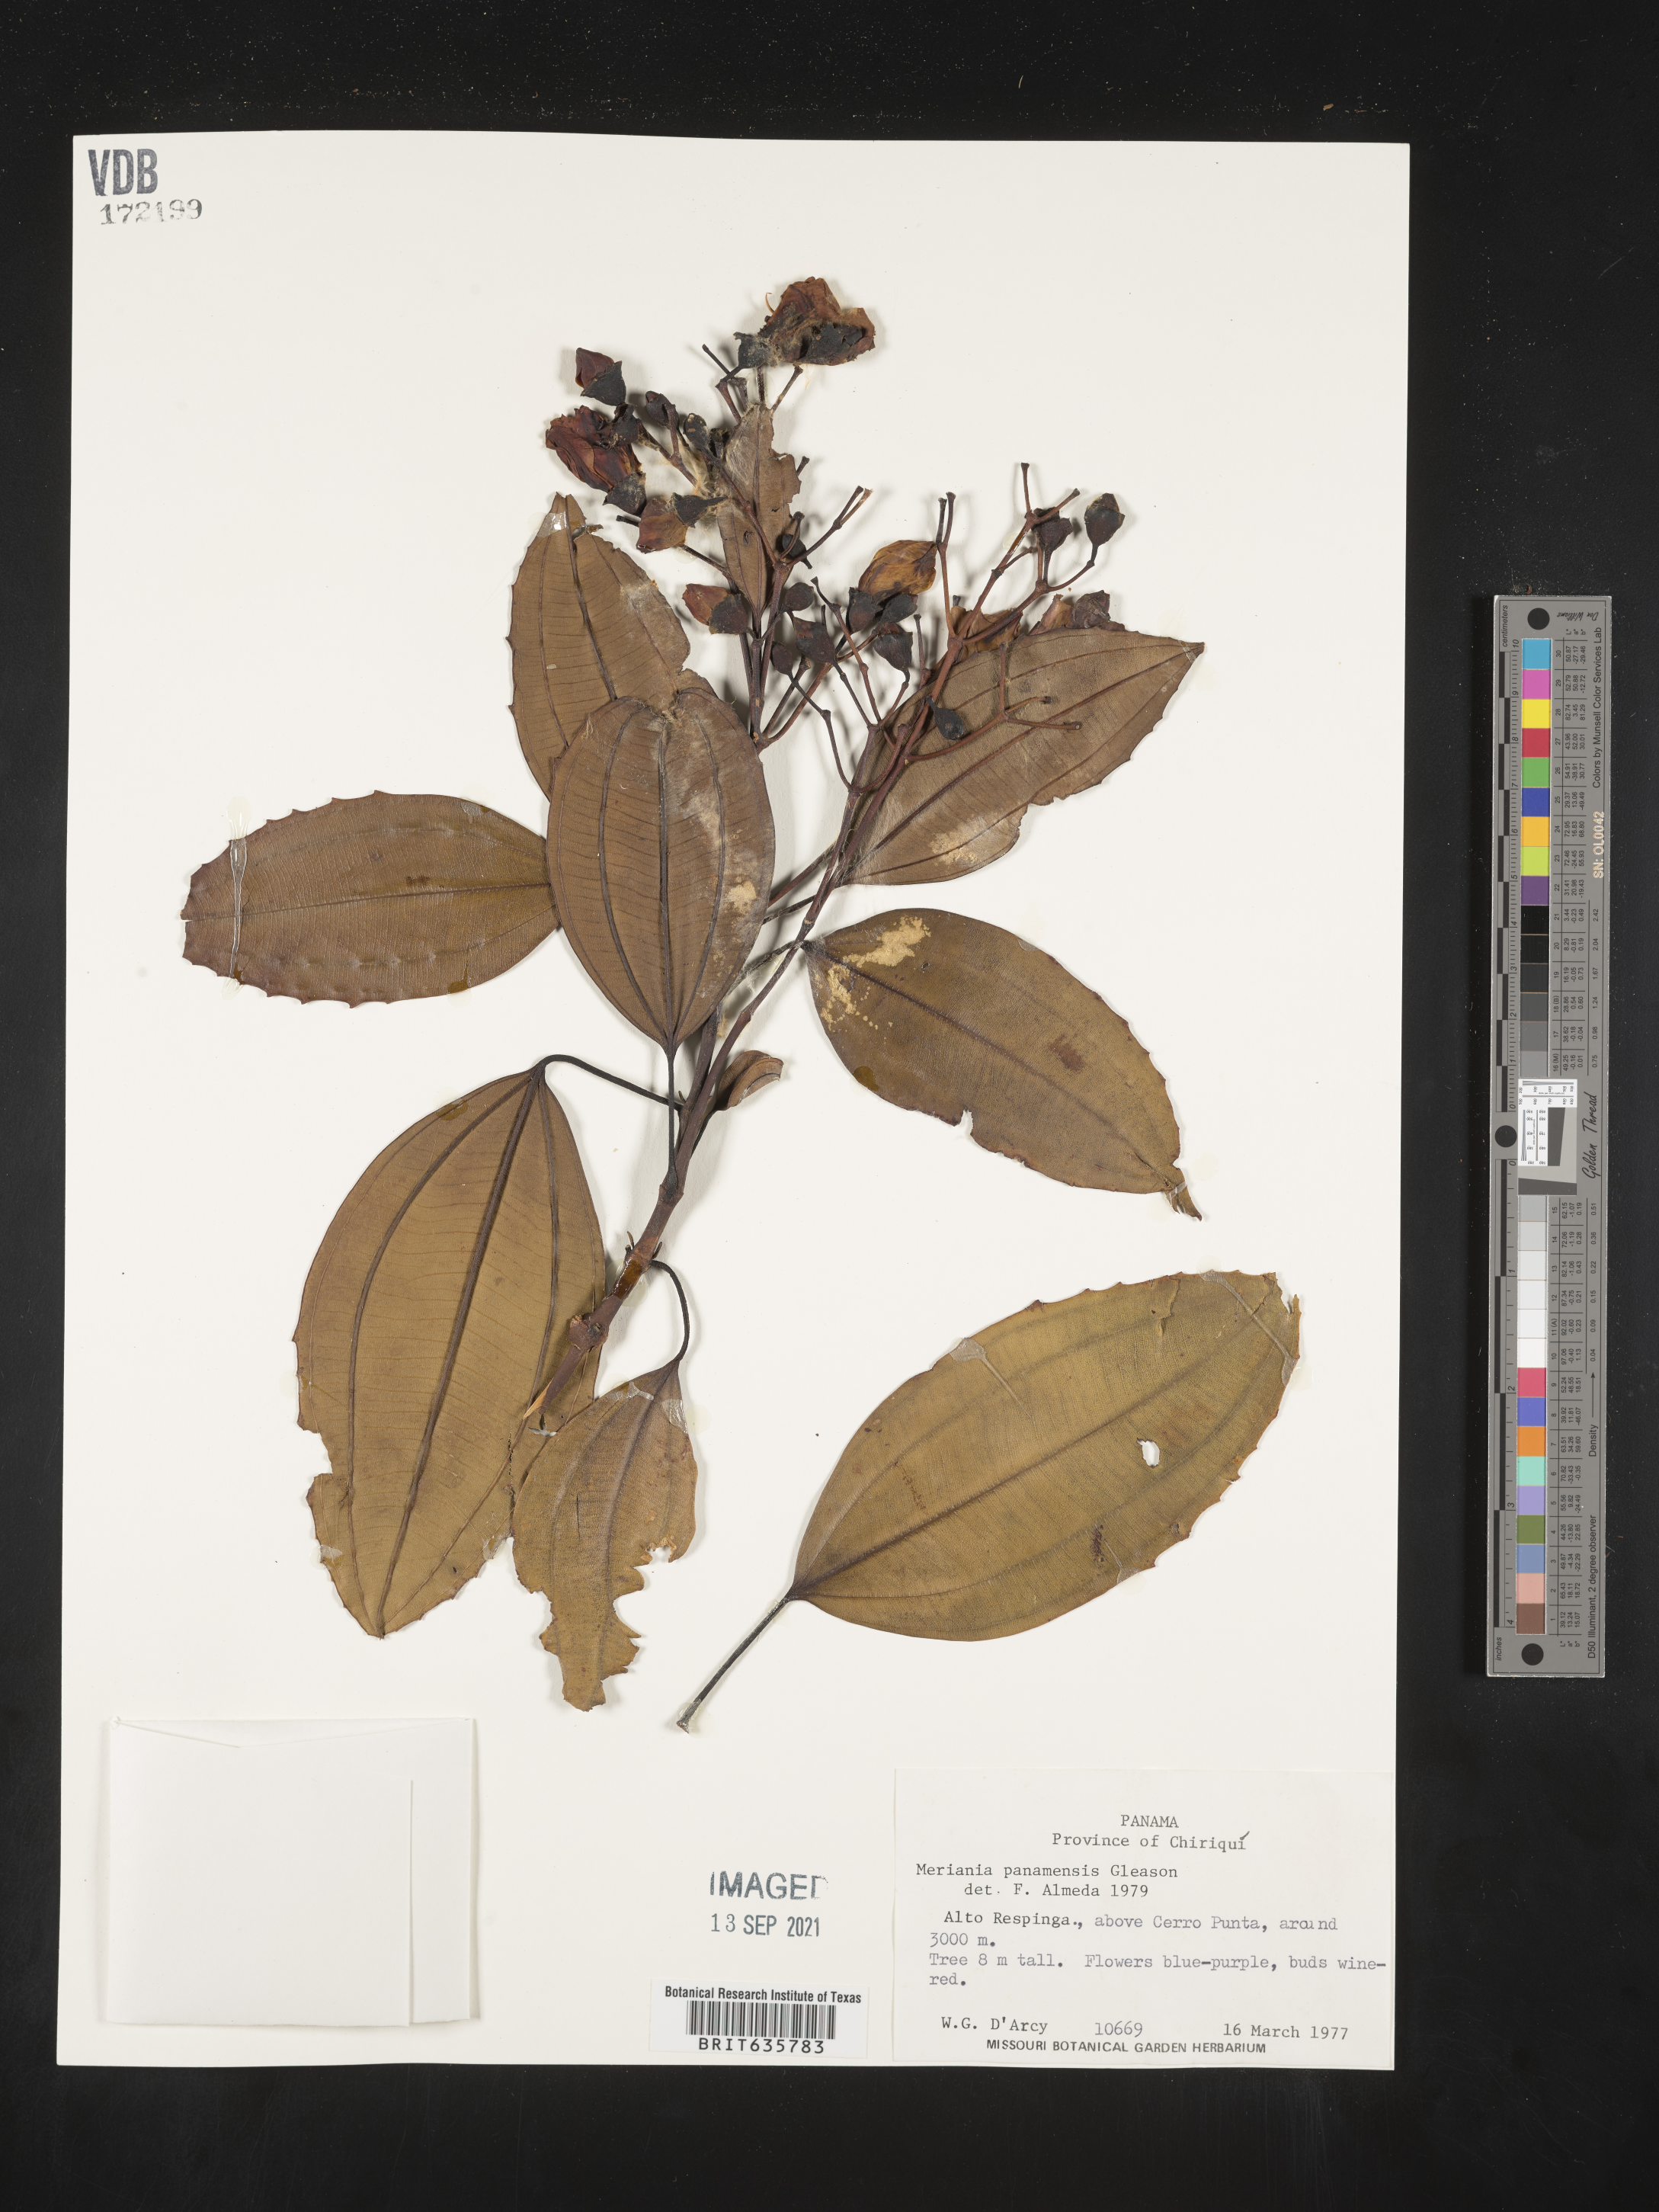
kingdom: Plantae
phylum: Tracheophyta
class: Magnoliopsida
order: Myrtales
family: Melastomataceae
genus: Meriania
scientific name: Meriania
